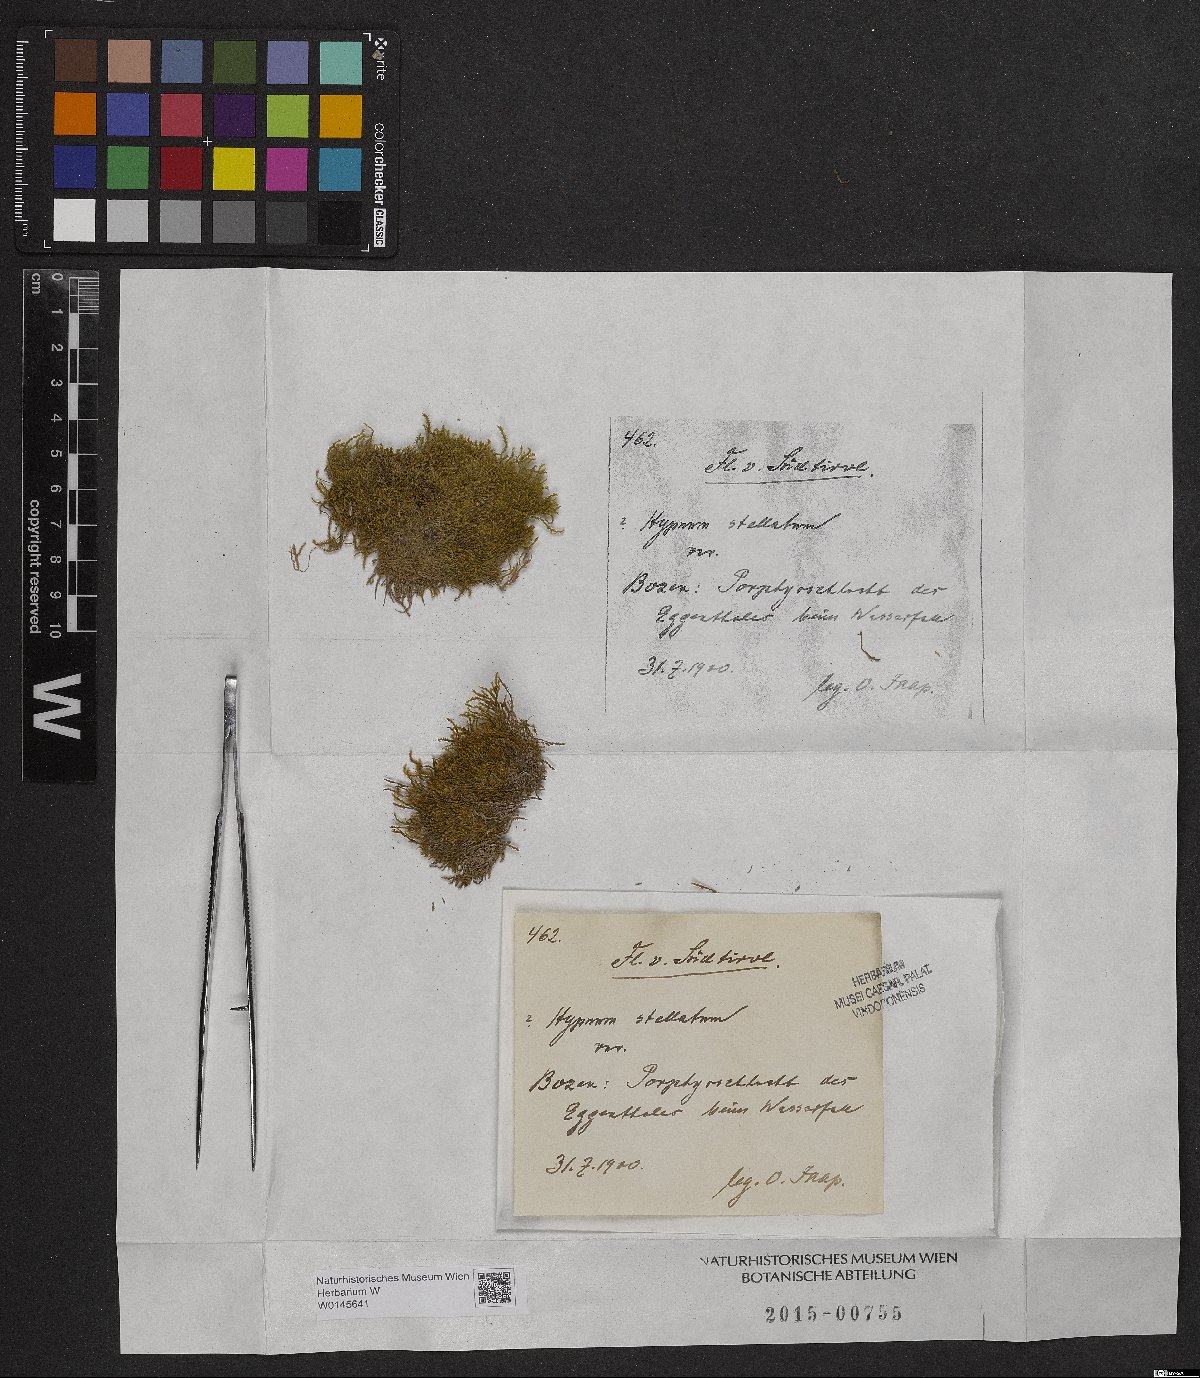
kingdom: Plantae
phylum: Bryophyta
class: Bryopsida
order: Hypnales
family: Amblystegiaceae
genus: Campylium
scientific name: Campylium stellatum
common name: Yellow starry fen moss
